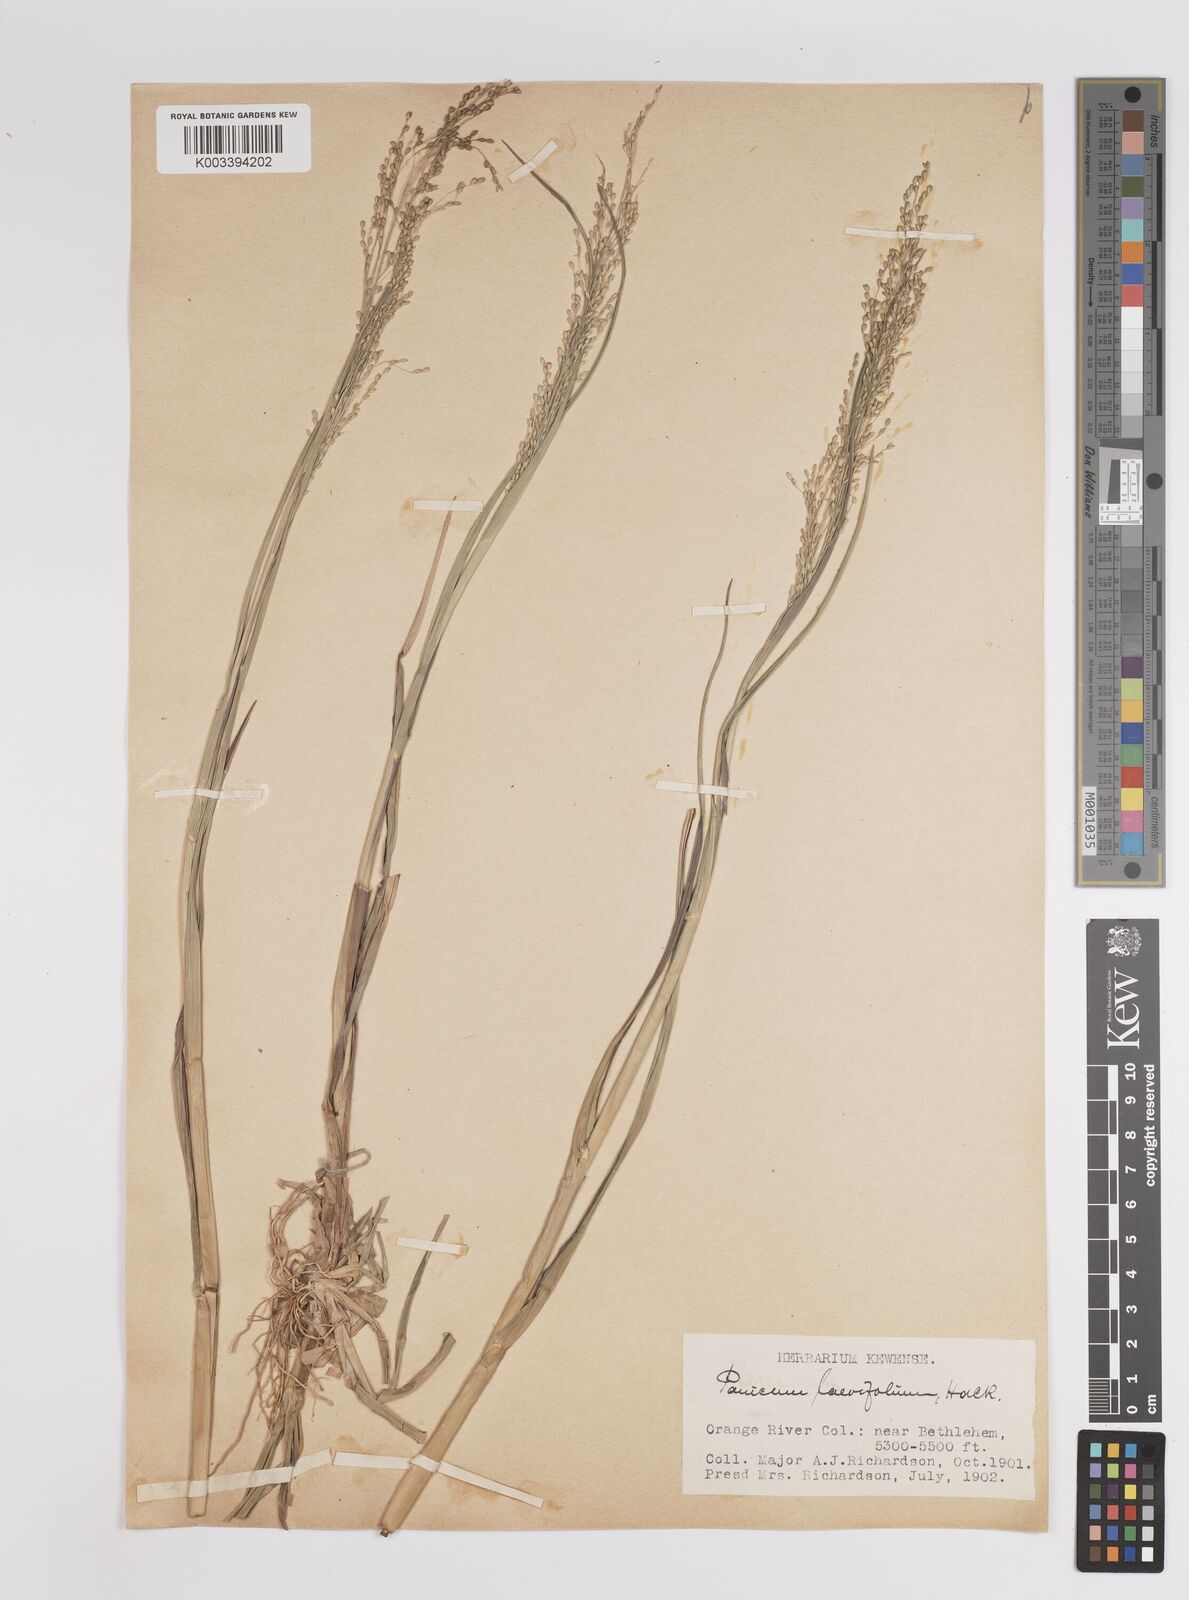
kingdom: Plantae
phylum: Tracheophyta
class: Liliopsida
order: Poales
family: Poaceae
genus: Panicum
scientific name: Panicum schinzii
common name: Sweet grass
